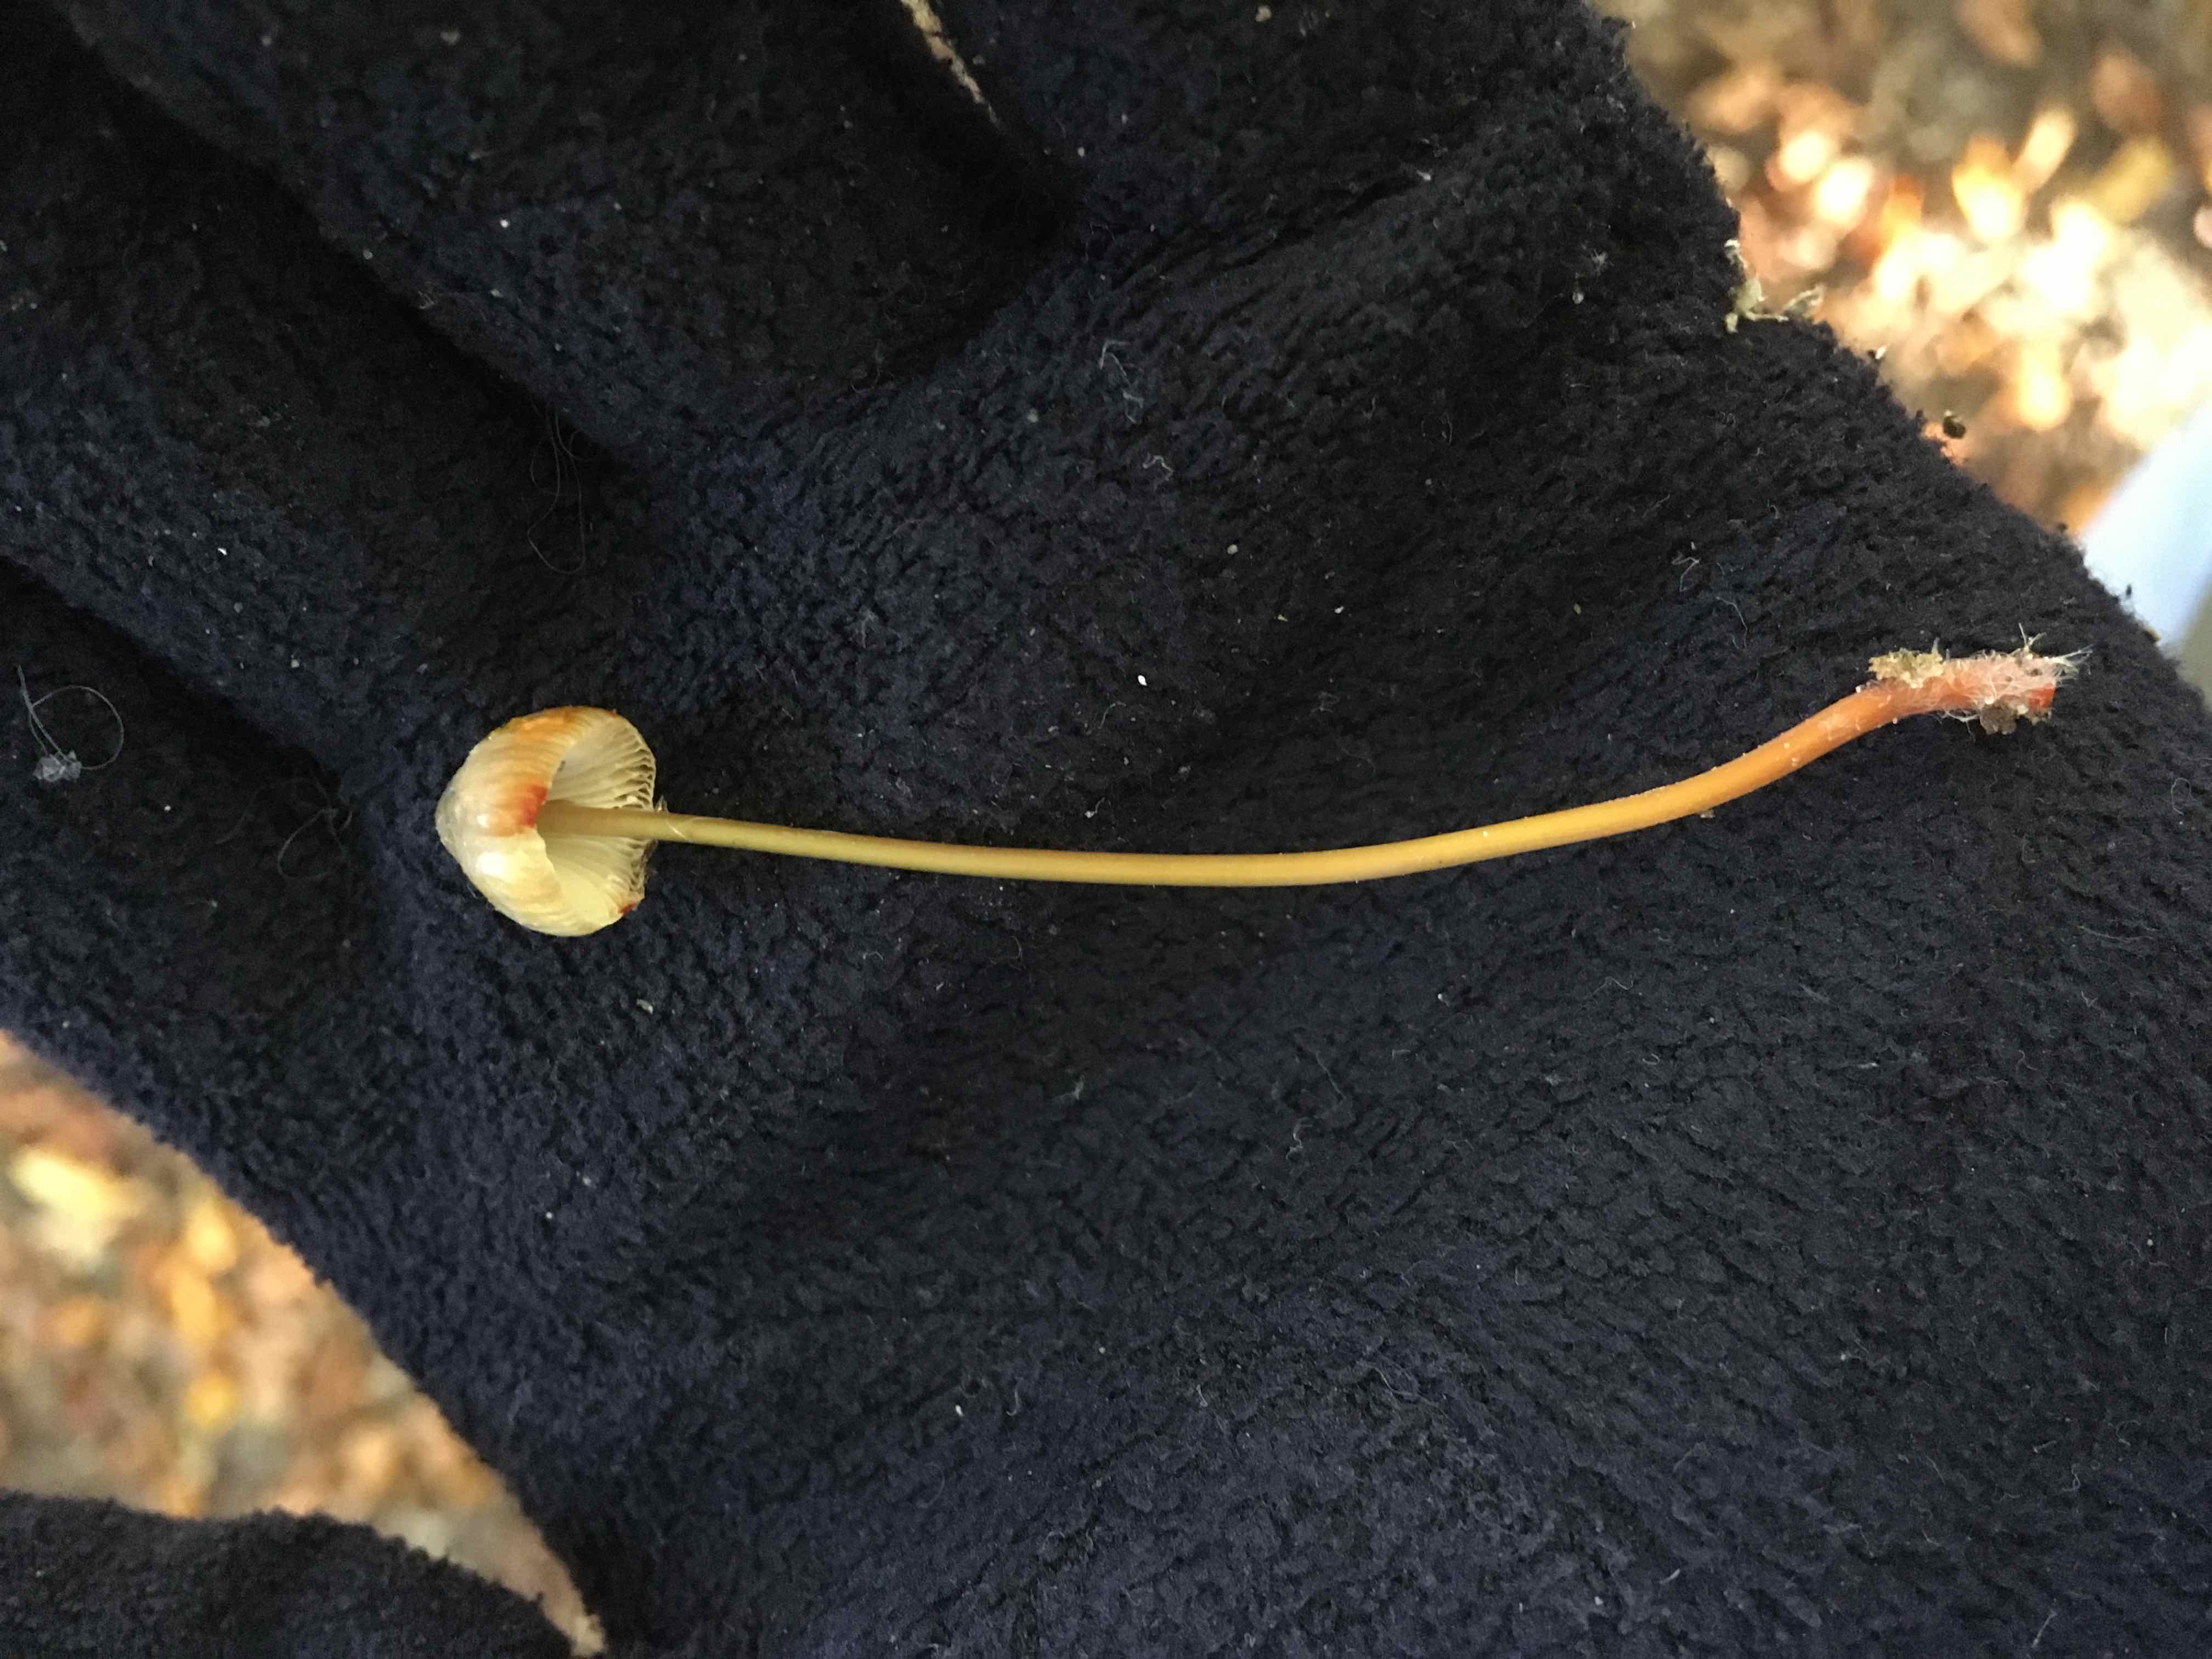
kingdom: Fungi
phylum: Basidiomycota
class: Agaricomycetes
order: Agaricales
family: Mycenaceae
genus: Mycena
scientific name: Mycena sanguinolenta
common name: rødmælket huesvamp
